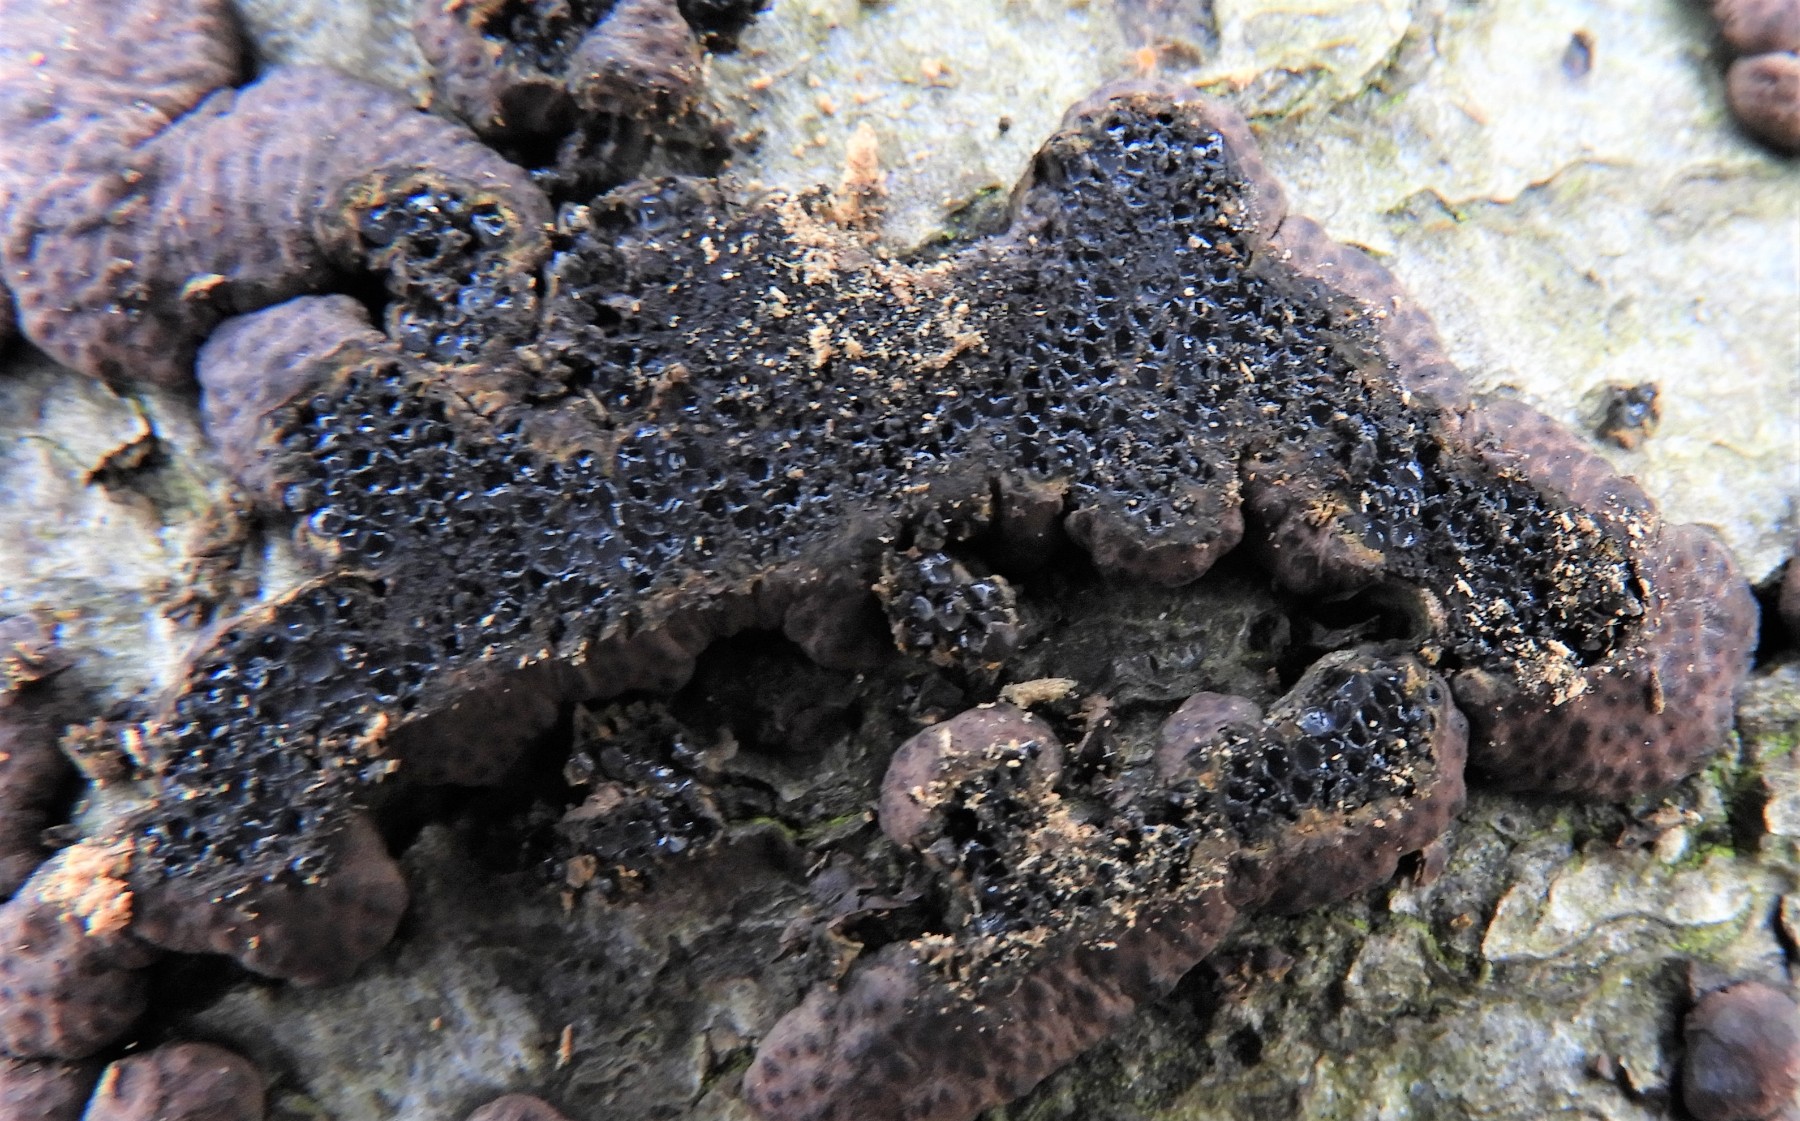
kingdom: Fungi
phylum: Ascomycota
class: Sordariomycetes
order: Xylariales
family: Hypoxylaceae
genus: Jackrogersella
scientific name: Jackrogersella cohaerens
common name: sammenflydende kulbær
